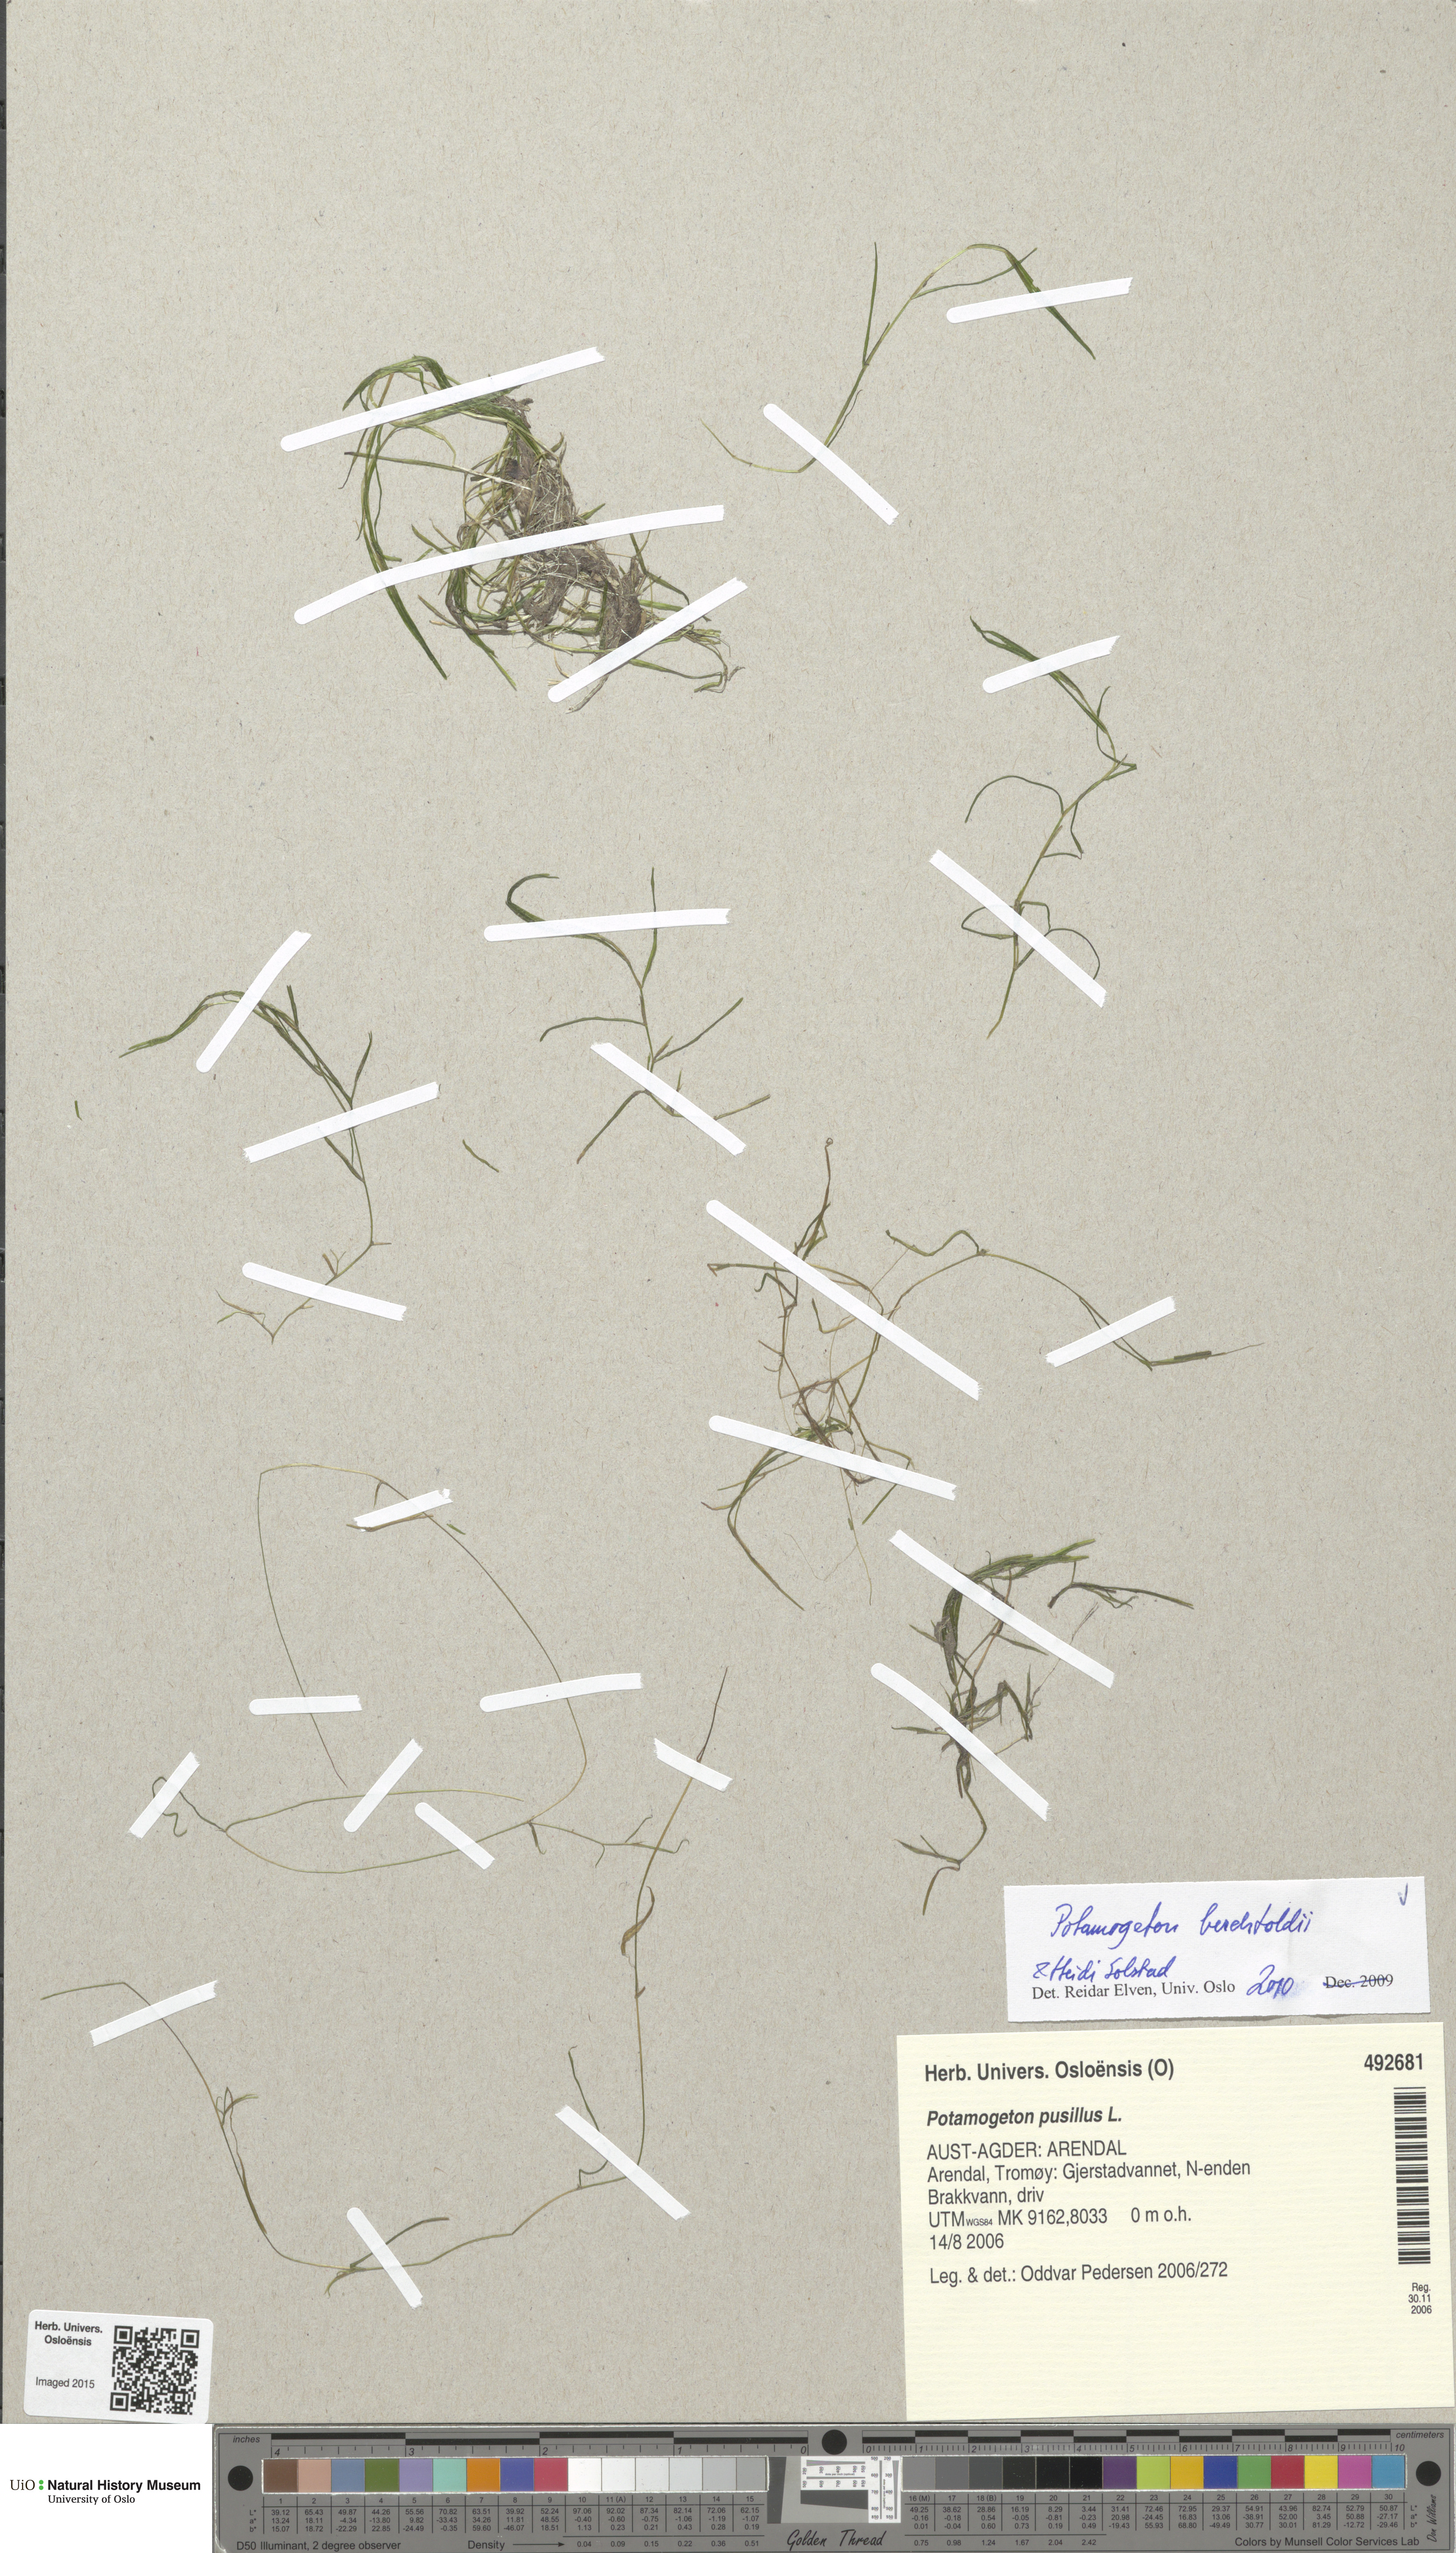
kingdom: Plantae
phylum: Tracheophyta
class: Liliopsida
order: Alismatales
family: Potamogetonaceae
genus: Potamogeton
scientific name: Potamogeton berchtoldii
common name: Small pondweed
